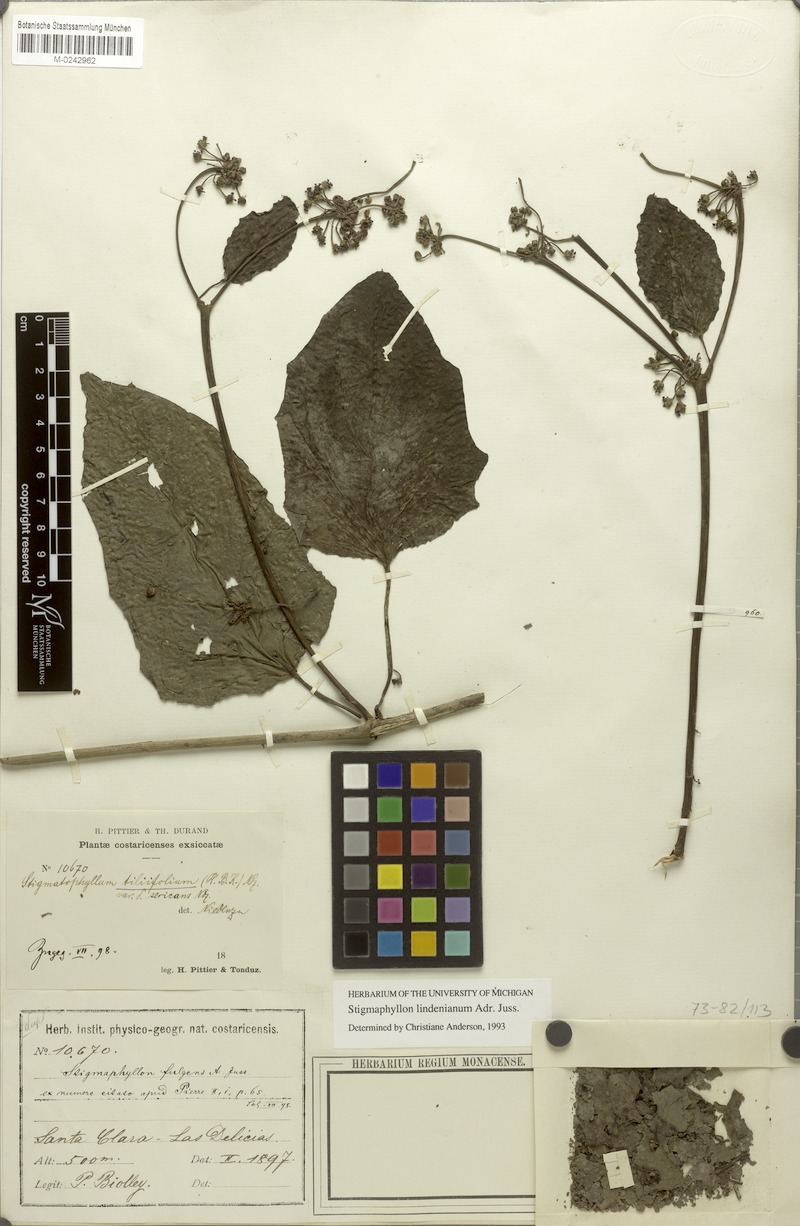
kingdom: Plantae
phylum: Tracheophyta
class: Magnoliopsida
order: Malpighiales
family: Malpighiaceae
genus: Stigmaphyllon
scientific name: Stigmaphyllon lindenianum
